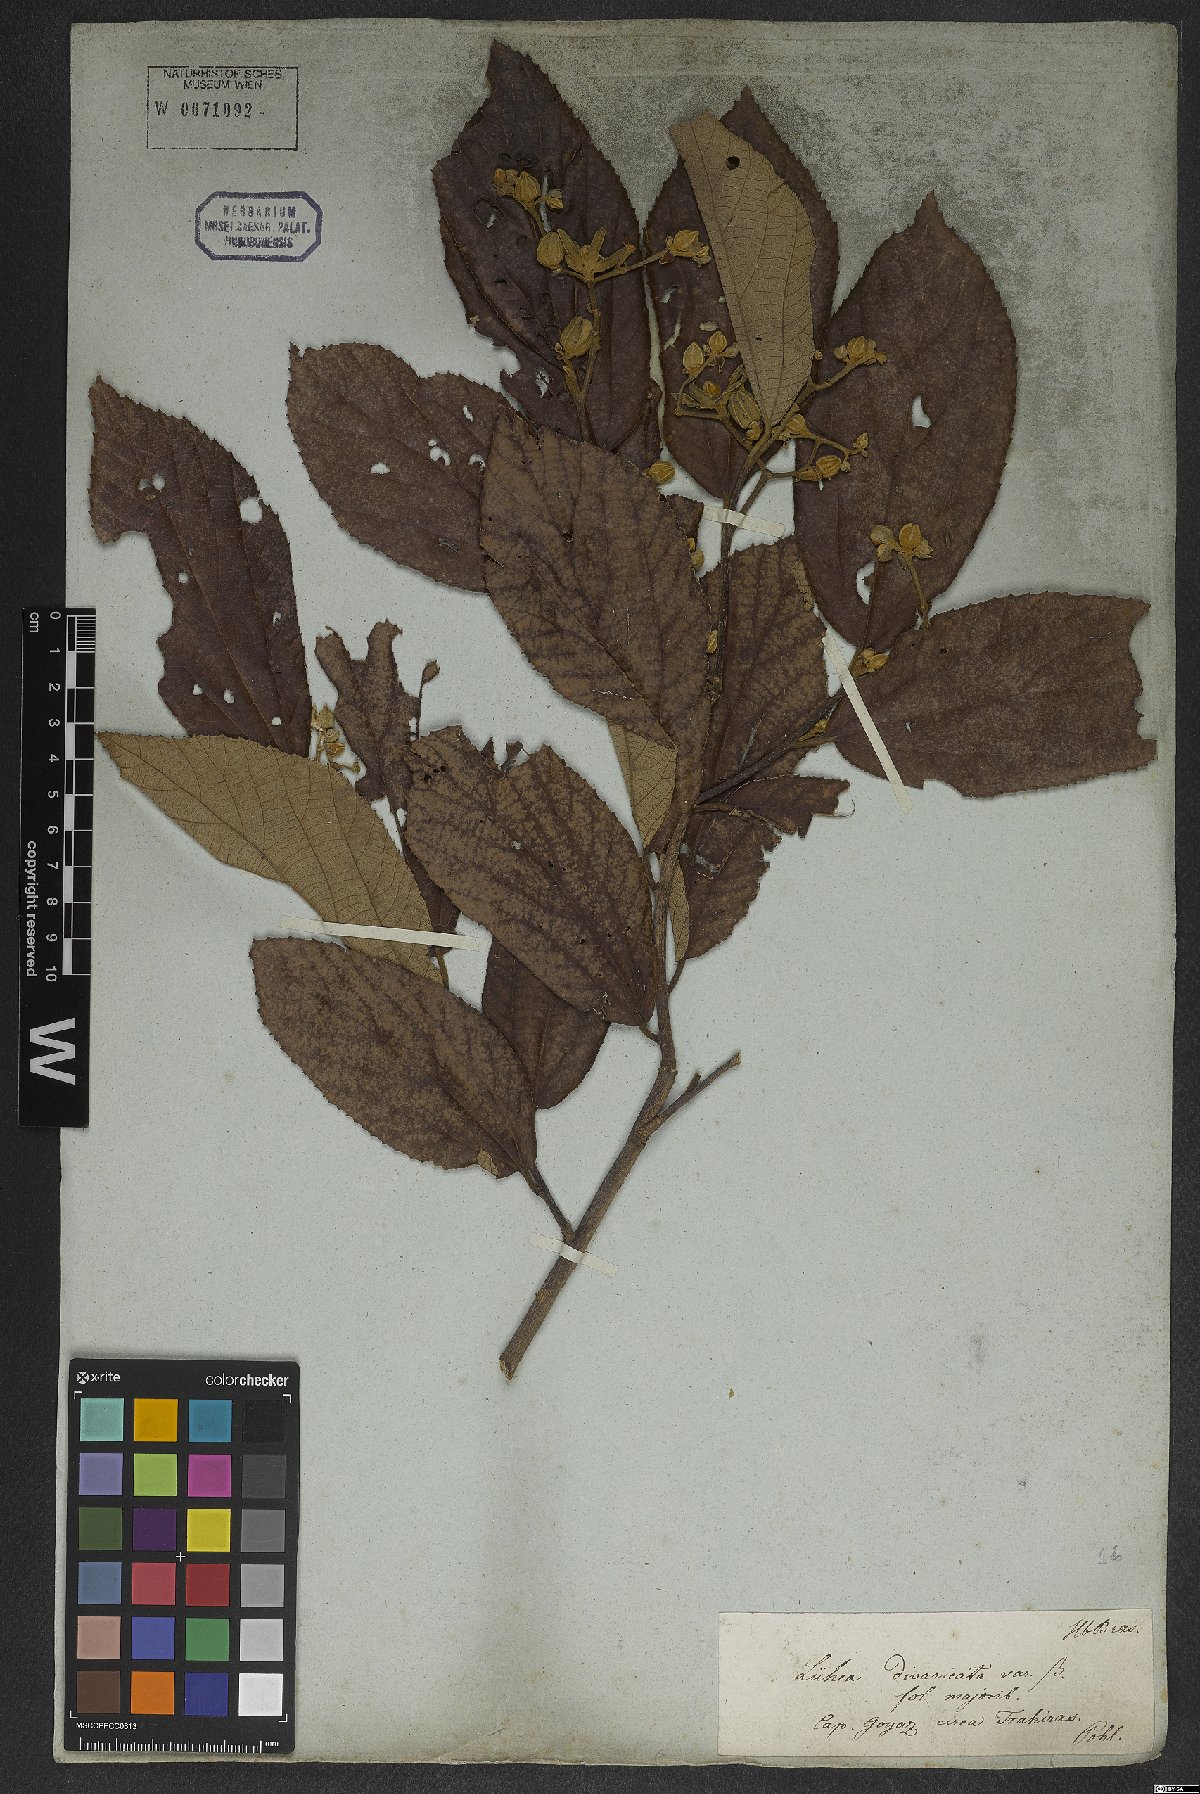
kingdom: Plantae
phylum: Tracheophyta
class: Magnoliopsida
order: Malvales
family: Malvaceae
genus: Luehea
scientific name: Luehea divaricata
